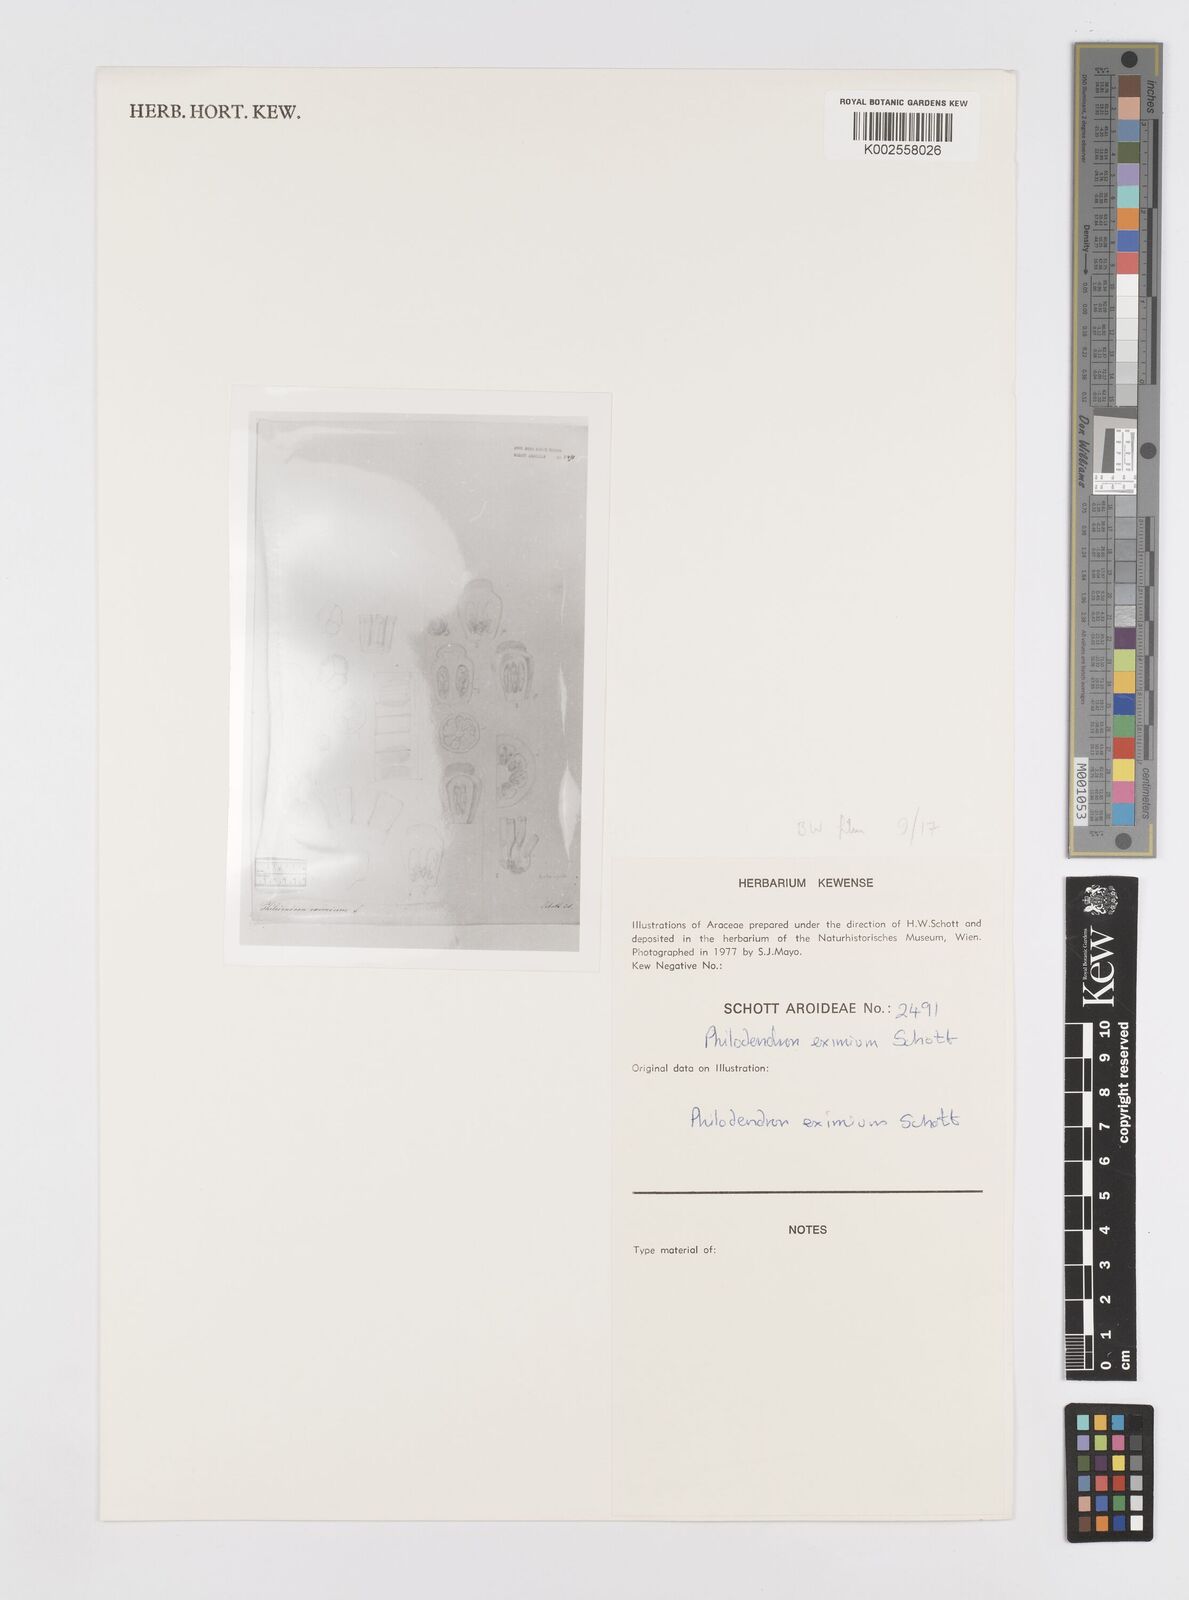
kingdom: Plantae
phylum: Tracheophyta
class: Liliopsida
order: Alismatales
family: Araceae
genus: Philodendron
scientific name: Philodendron eximium
